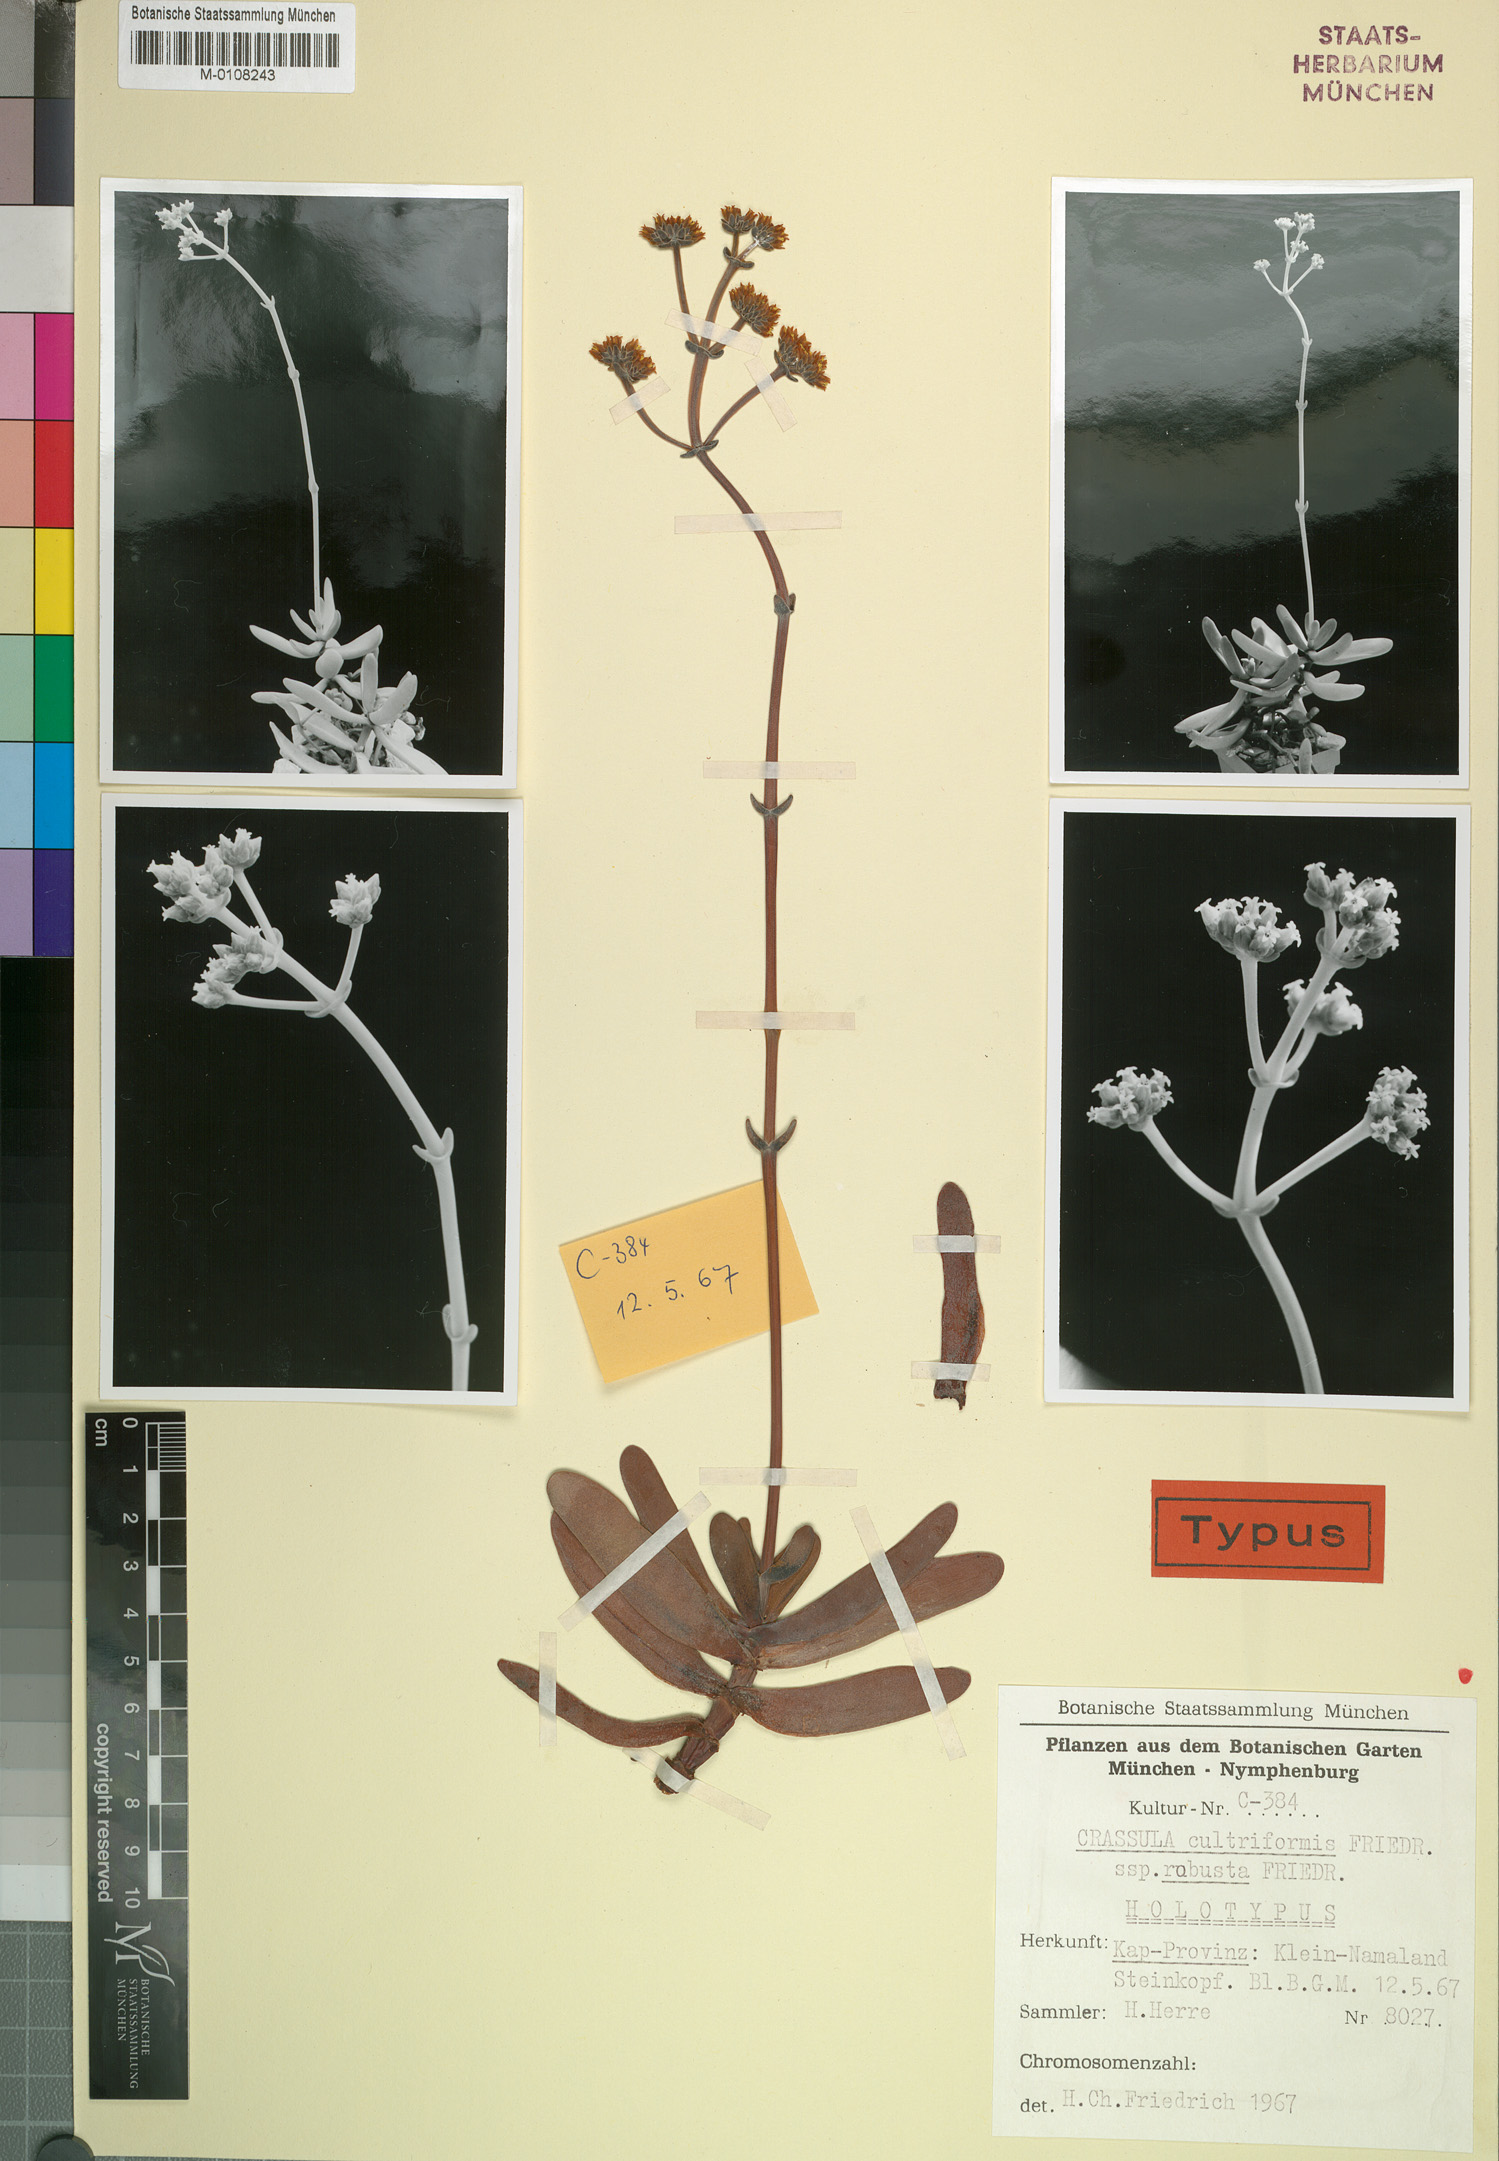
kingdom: Plantae
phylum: Tracheophyta
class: Magnoliopsida
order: Saxifragales
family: Crassulaceae
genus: Crassula
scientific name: Crassula atropurpurea
